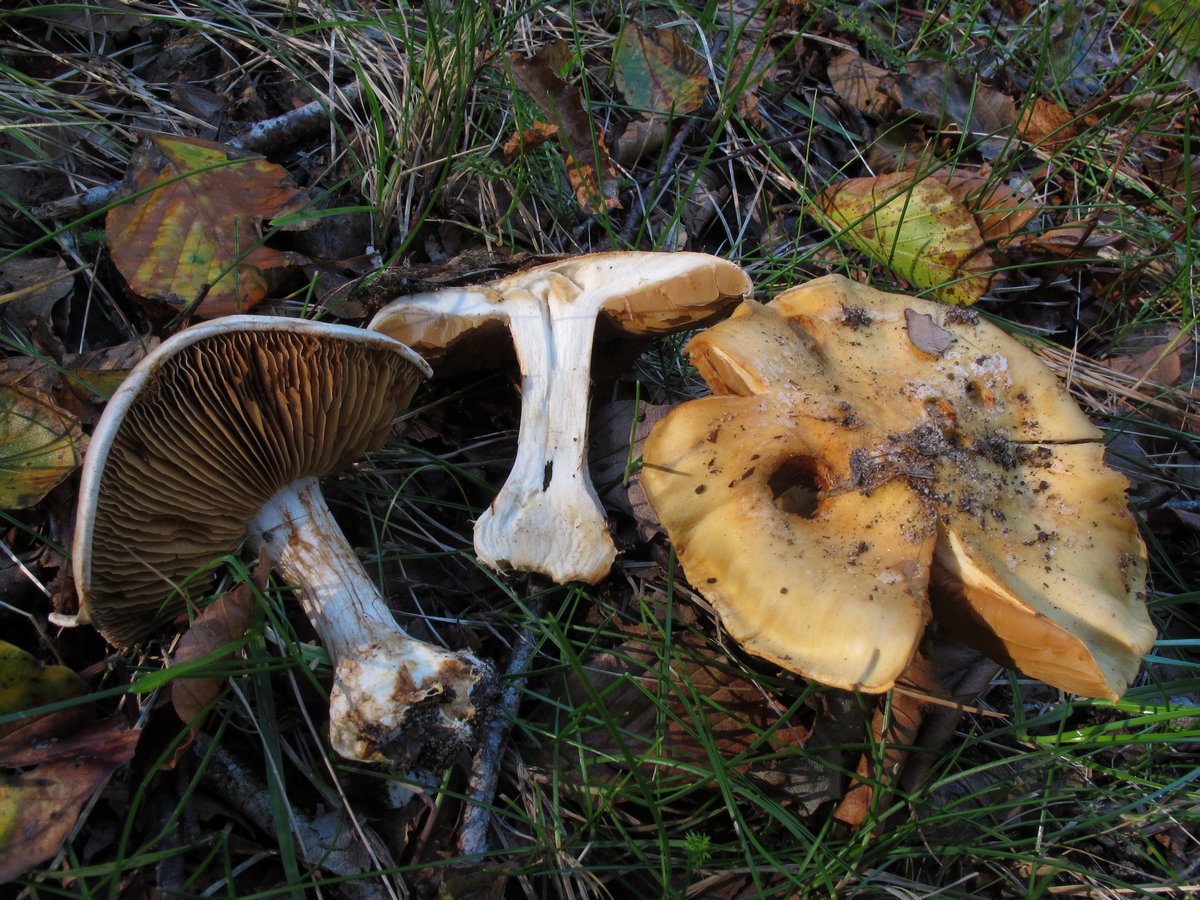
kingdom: Fungi
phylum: Basidiomycota
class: Agaricomycetes
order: Agaricales
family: Cortinariaceae
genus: Phlegmacium
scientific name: Phlegmacium xantho-ochraceum
